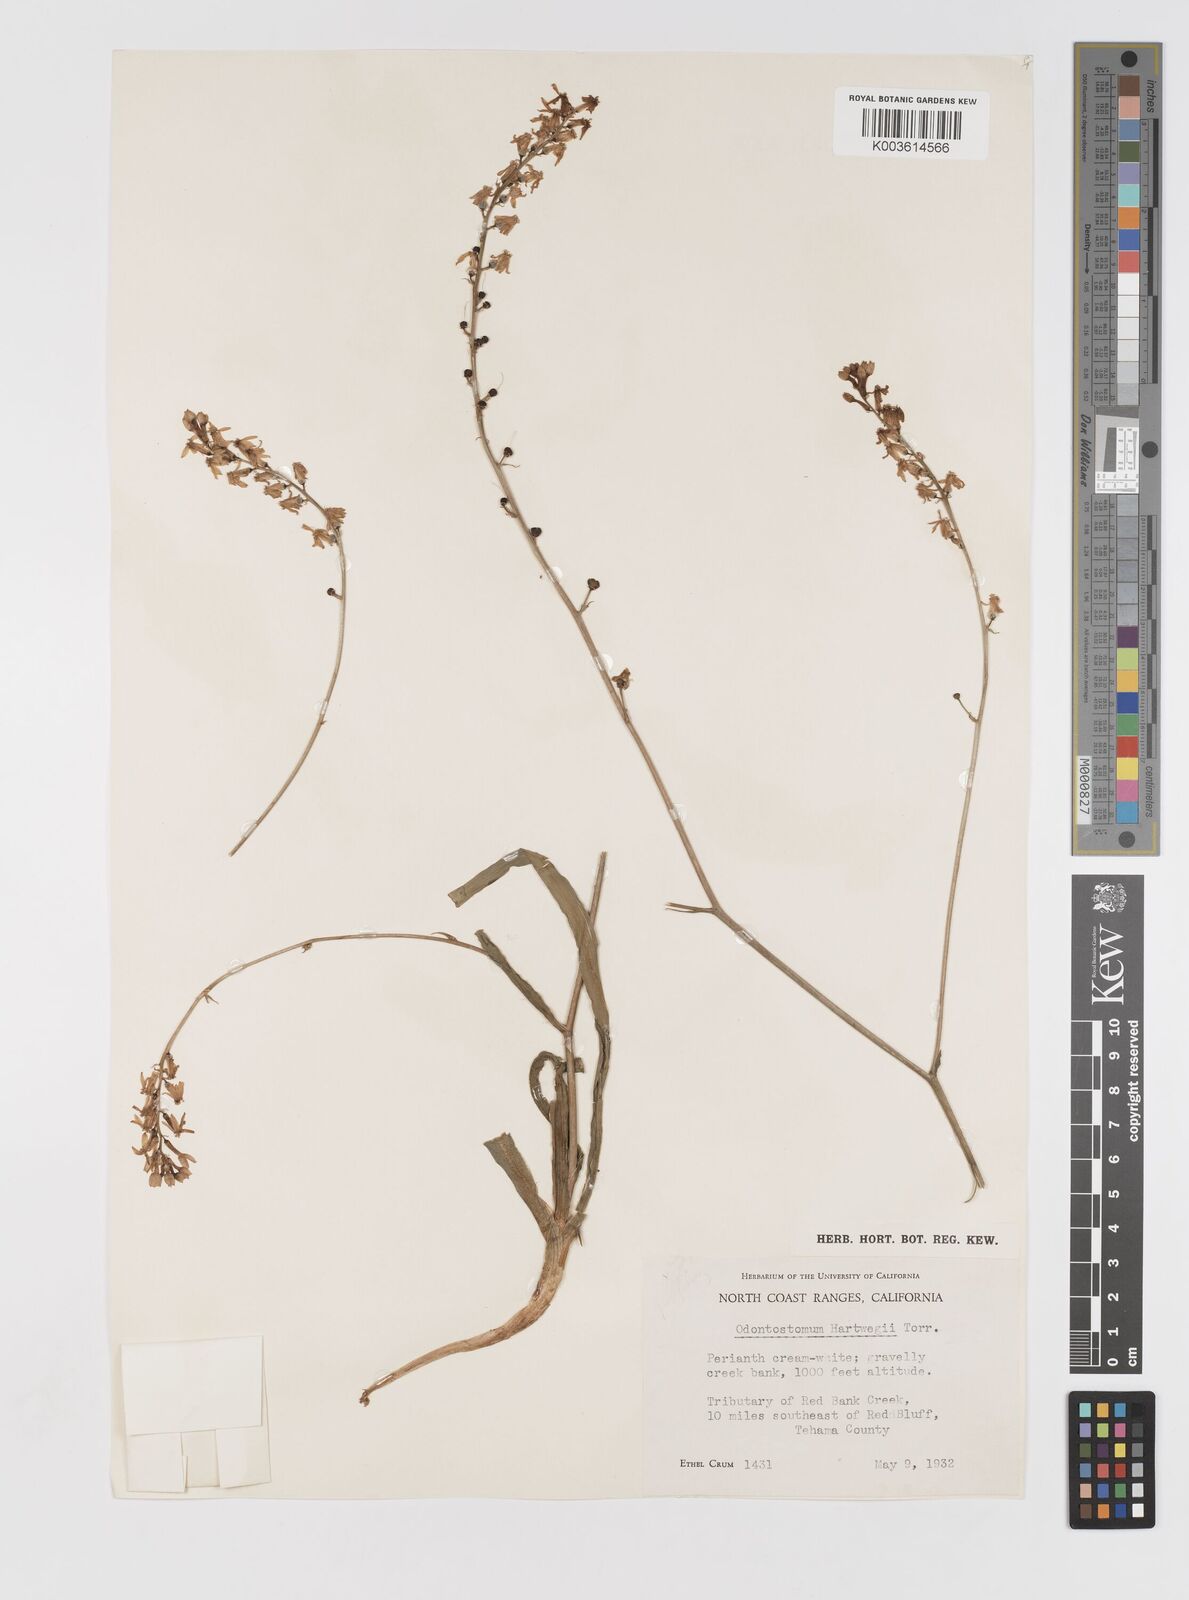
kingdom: Plantae
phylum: Tracheophyta
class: Liliopsida
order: Asparagales
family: Tecophilaeaceae
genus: Odontostomum
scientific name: Odontostomum hartwegii
